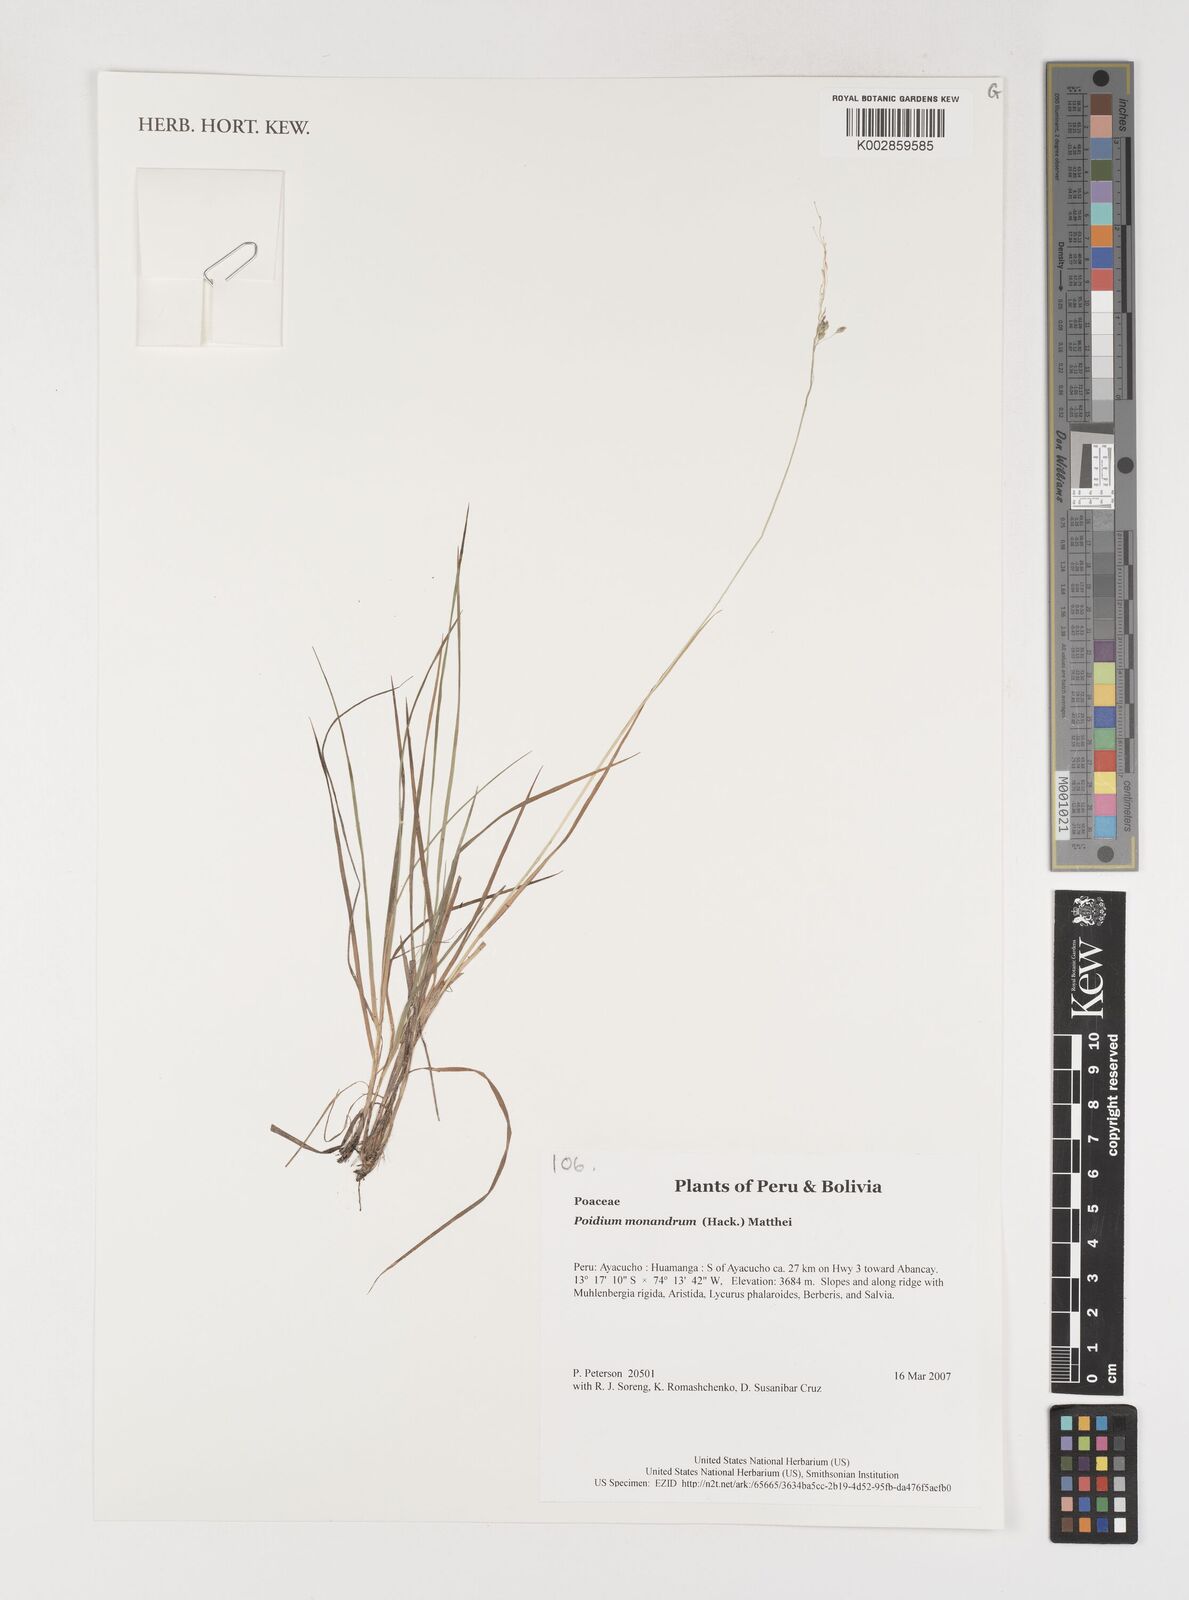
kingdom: Plantae
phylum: Tracheophyta
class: Liliopsida
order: Poales
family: Poaceae
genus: Poidium
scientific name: Poidium monandrum
